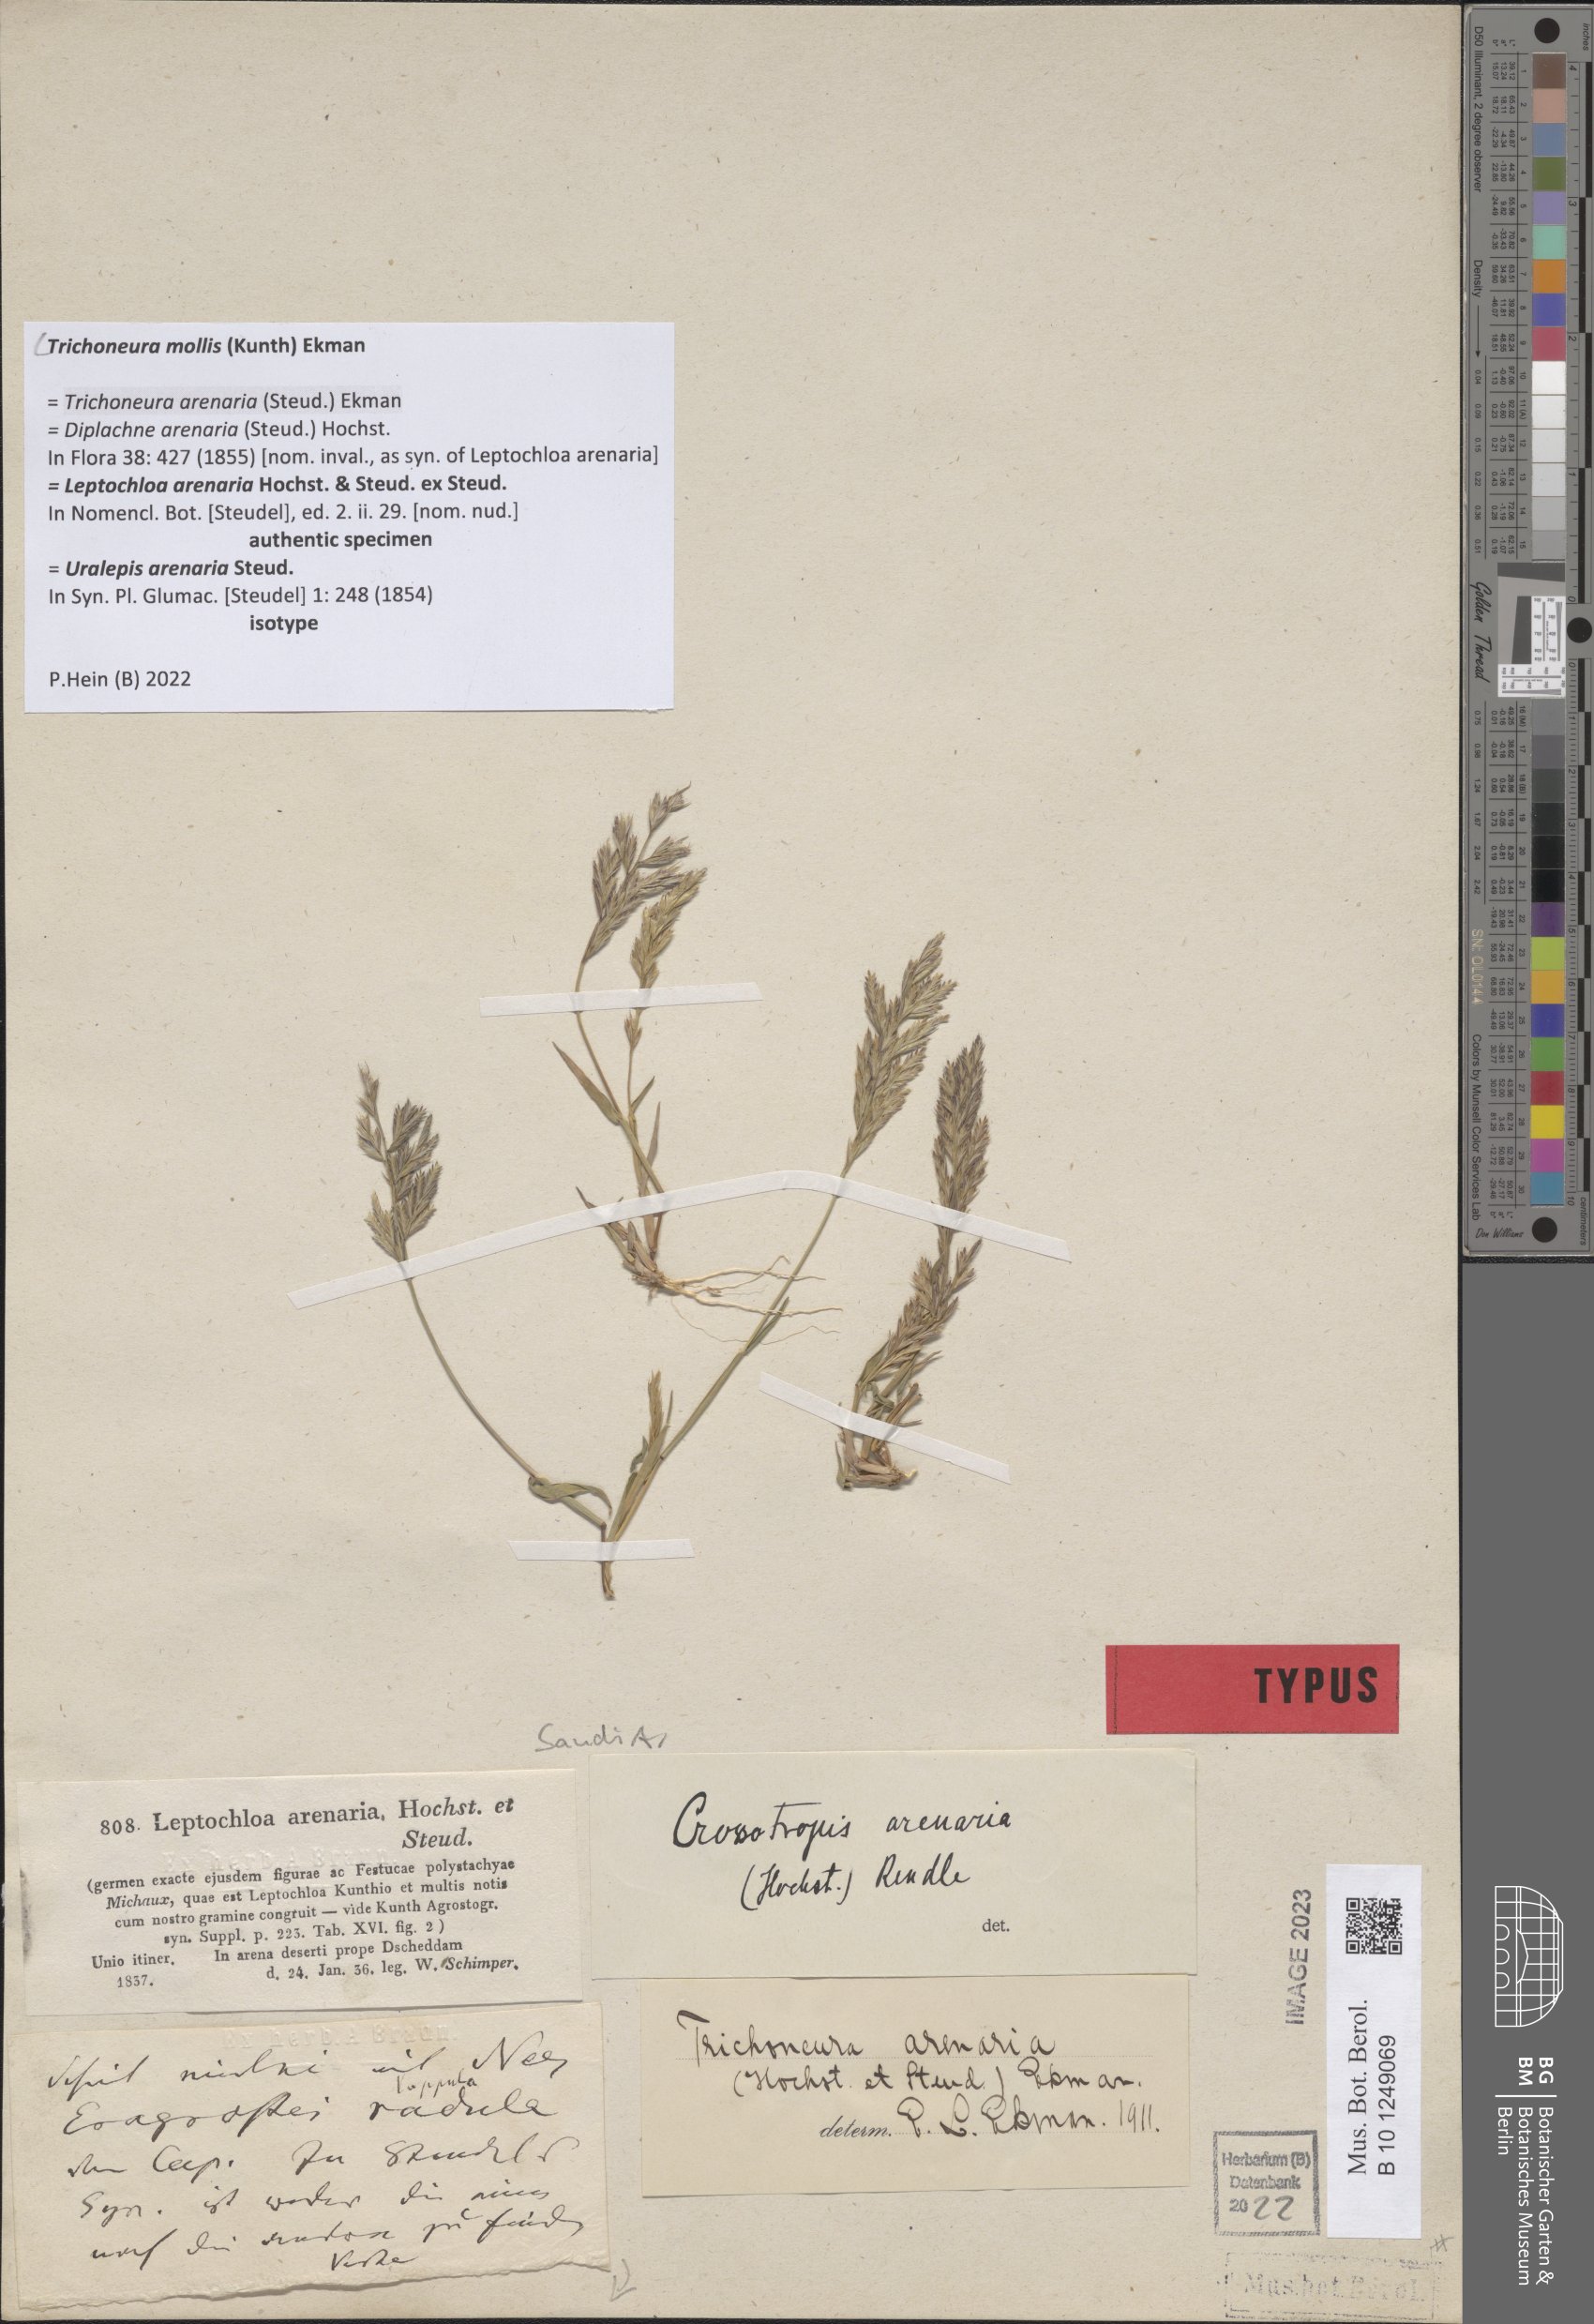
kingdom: Plantae
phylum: Tracheophyta
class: Liliopsida
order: Poales
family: Poaceae
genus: Trichoneura
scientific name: Trichoneura mollis
